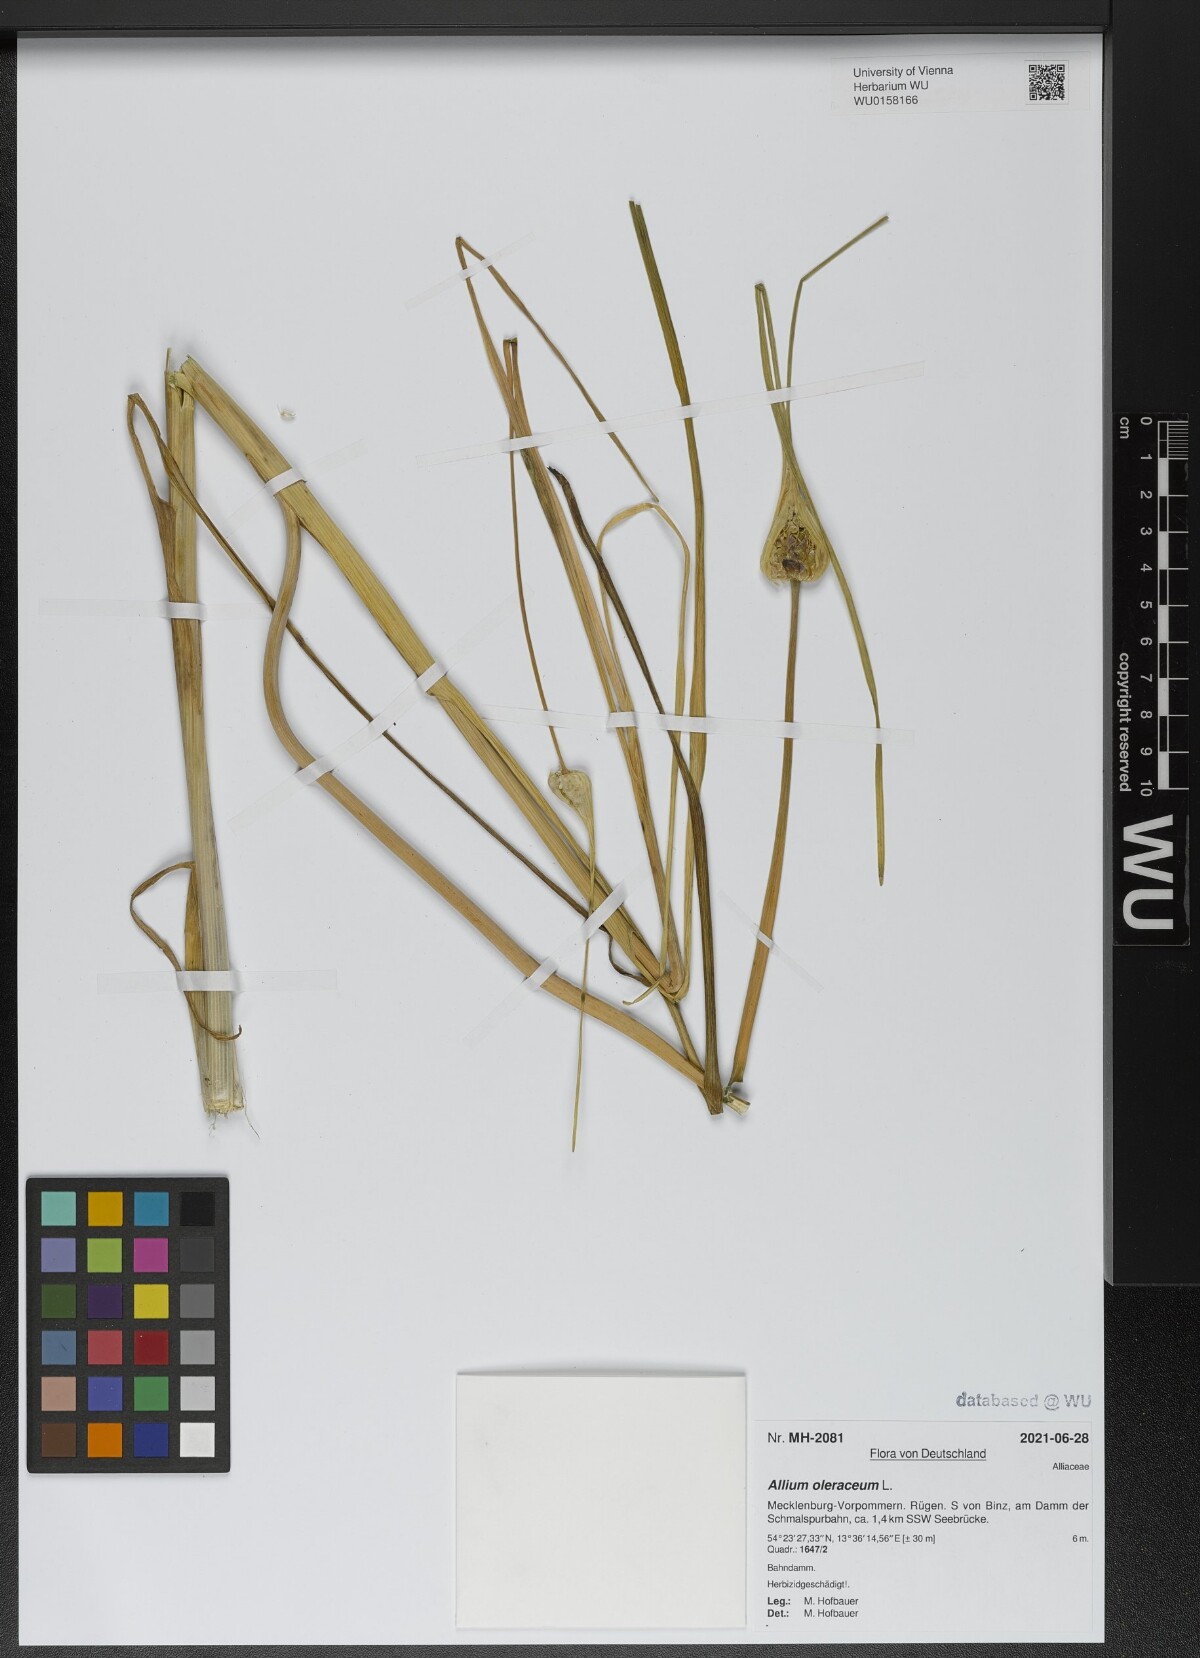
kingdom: Plantae
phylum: Tracheophyta
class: Liliopsida
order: Asparagales
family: Amaryllidaceae
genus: Allium
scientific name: Allium oleraceum
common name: Field garlic
